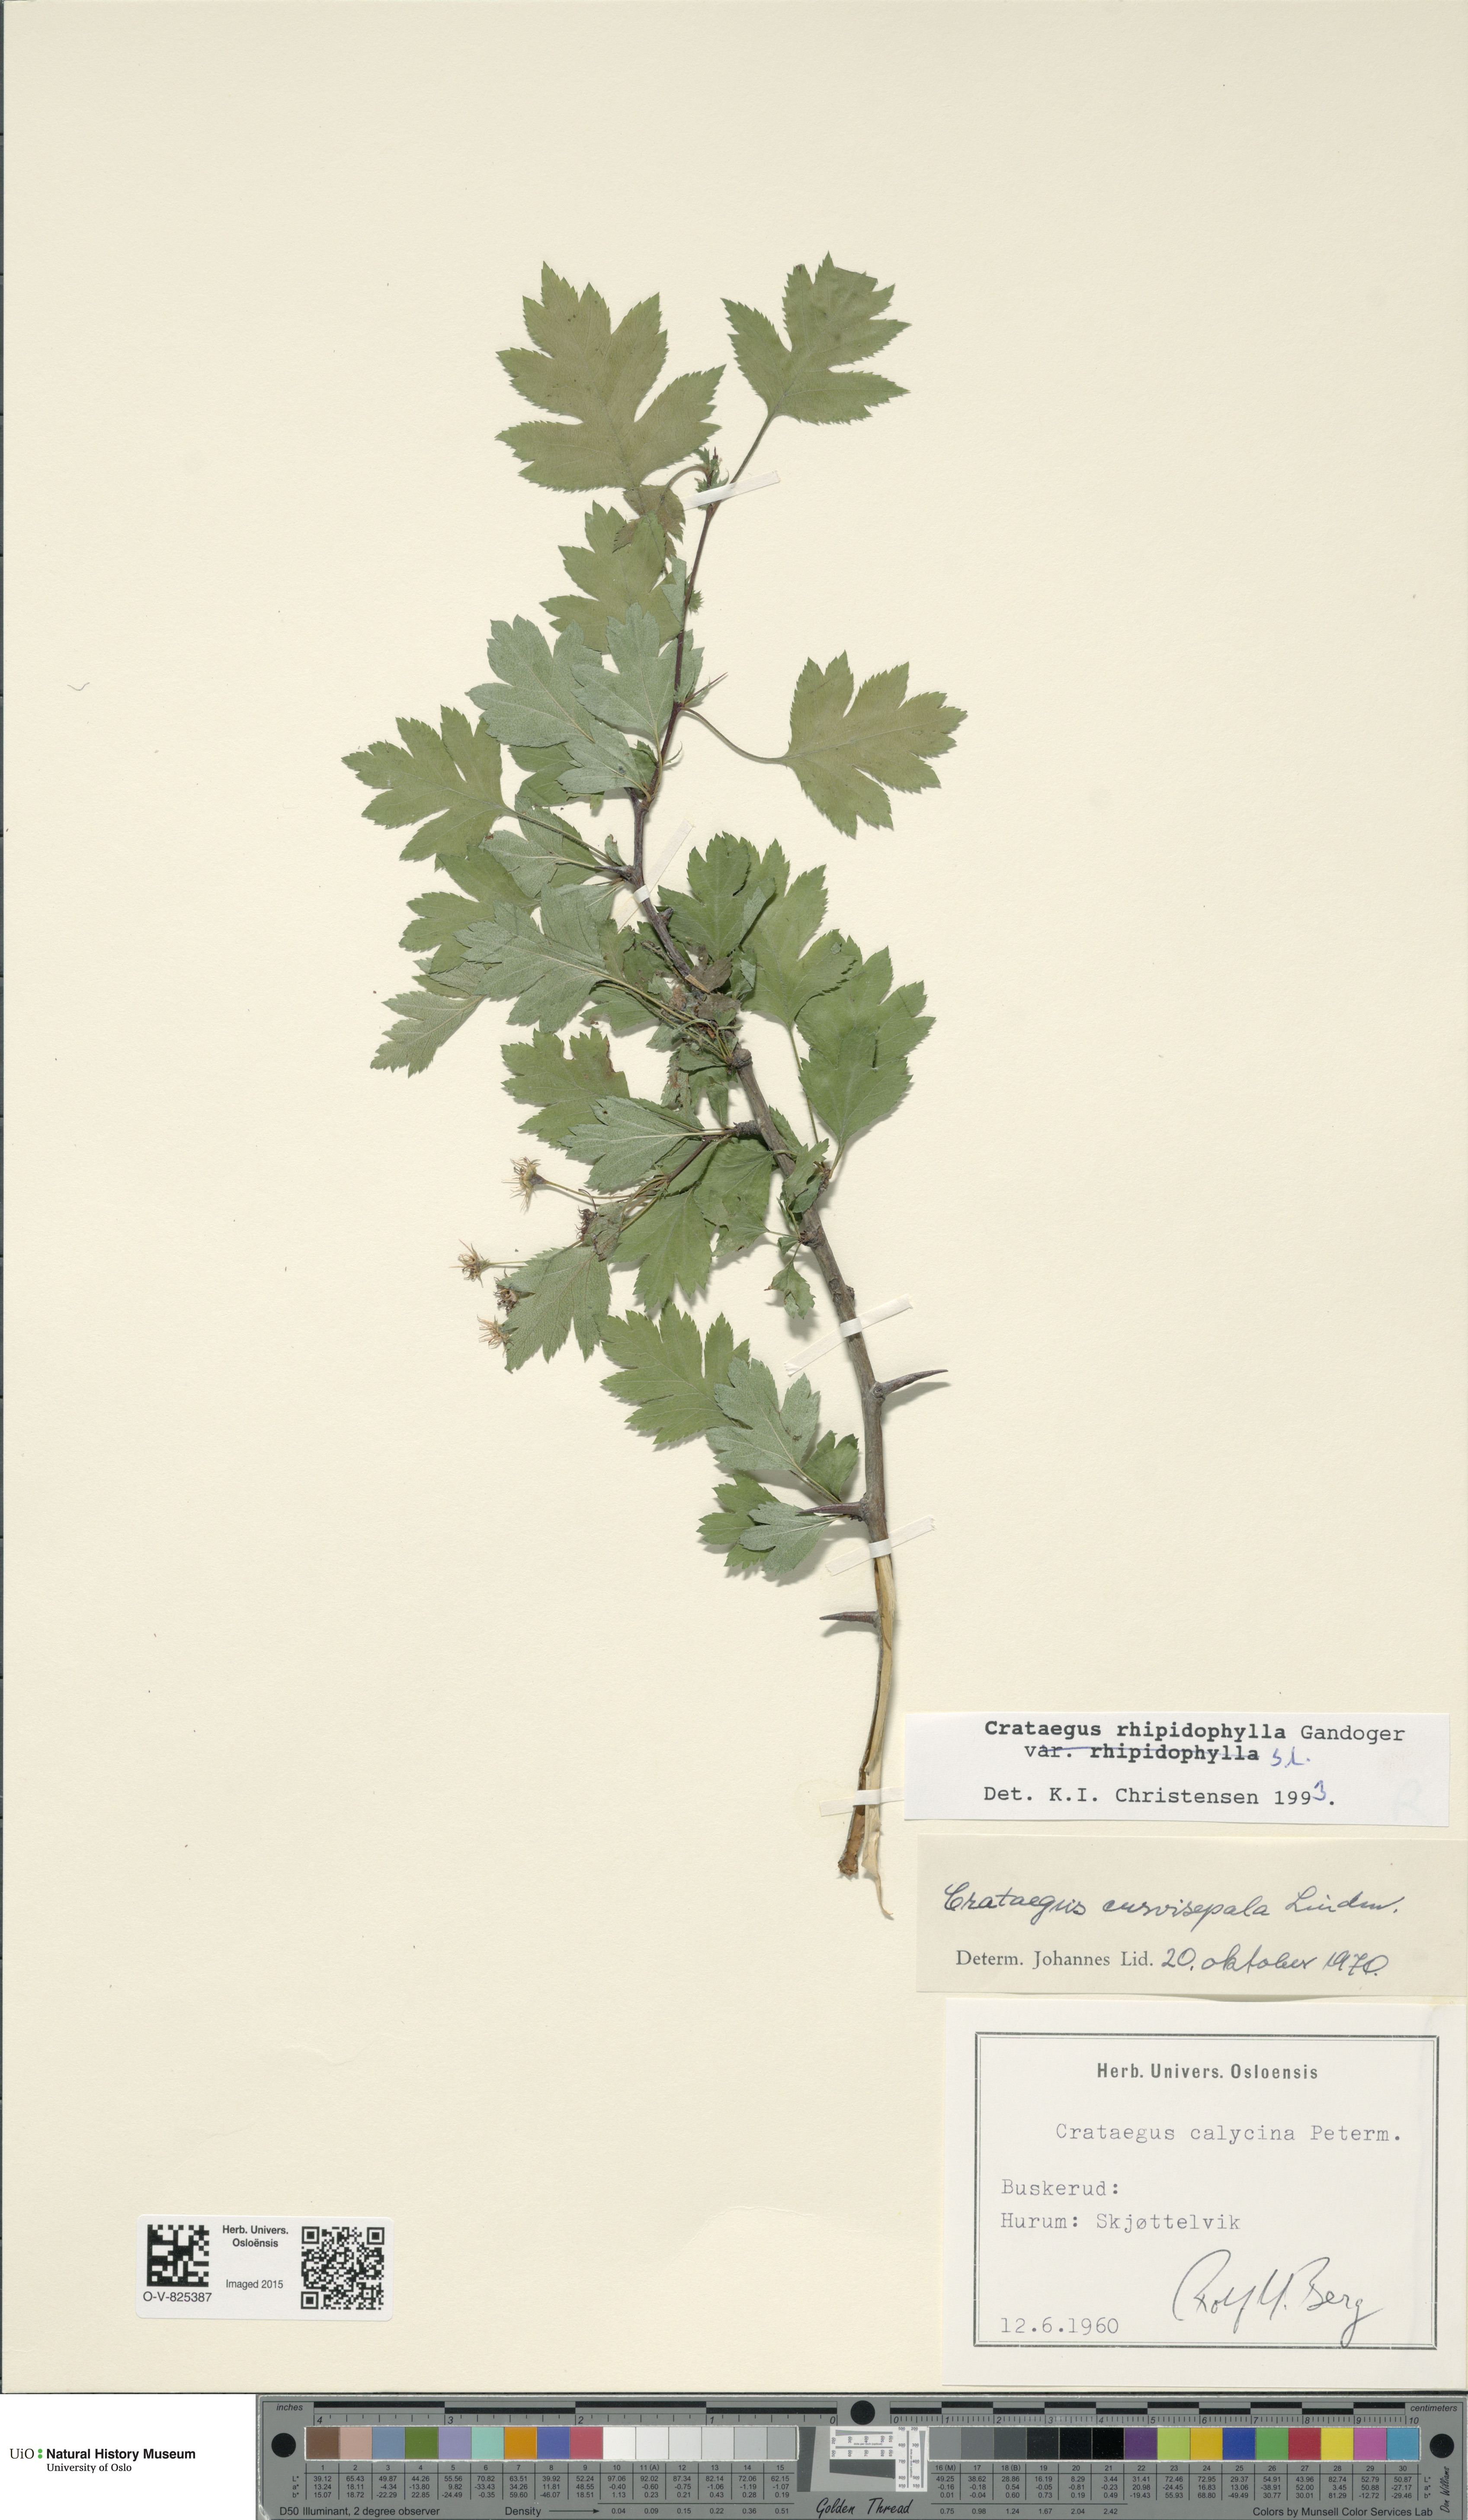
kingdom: Plantae
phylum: Tracheophyta
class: Magnoliopsida
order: Rosales
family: Rosaceae
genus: Crataegus
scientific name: Crataegus rhipidophylla
